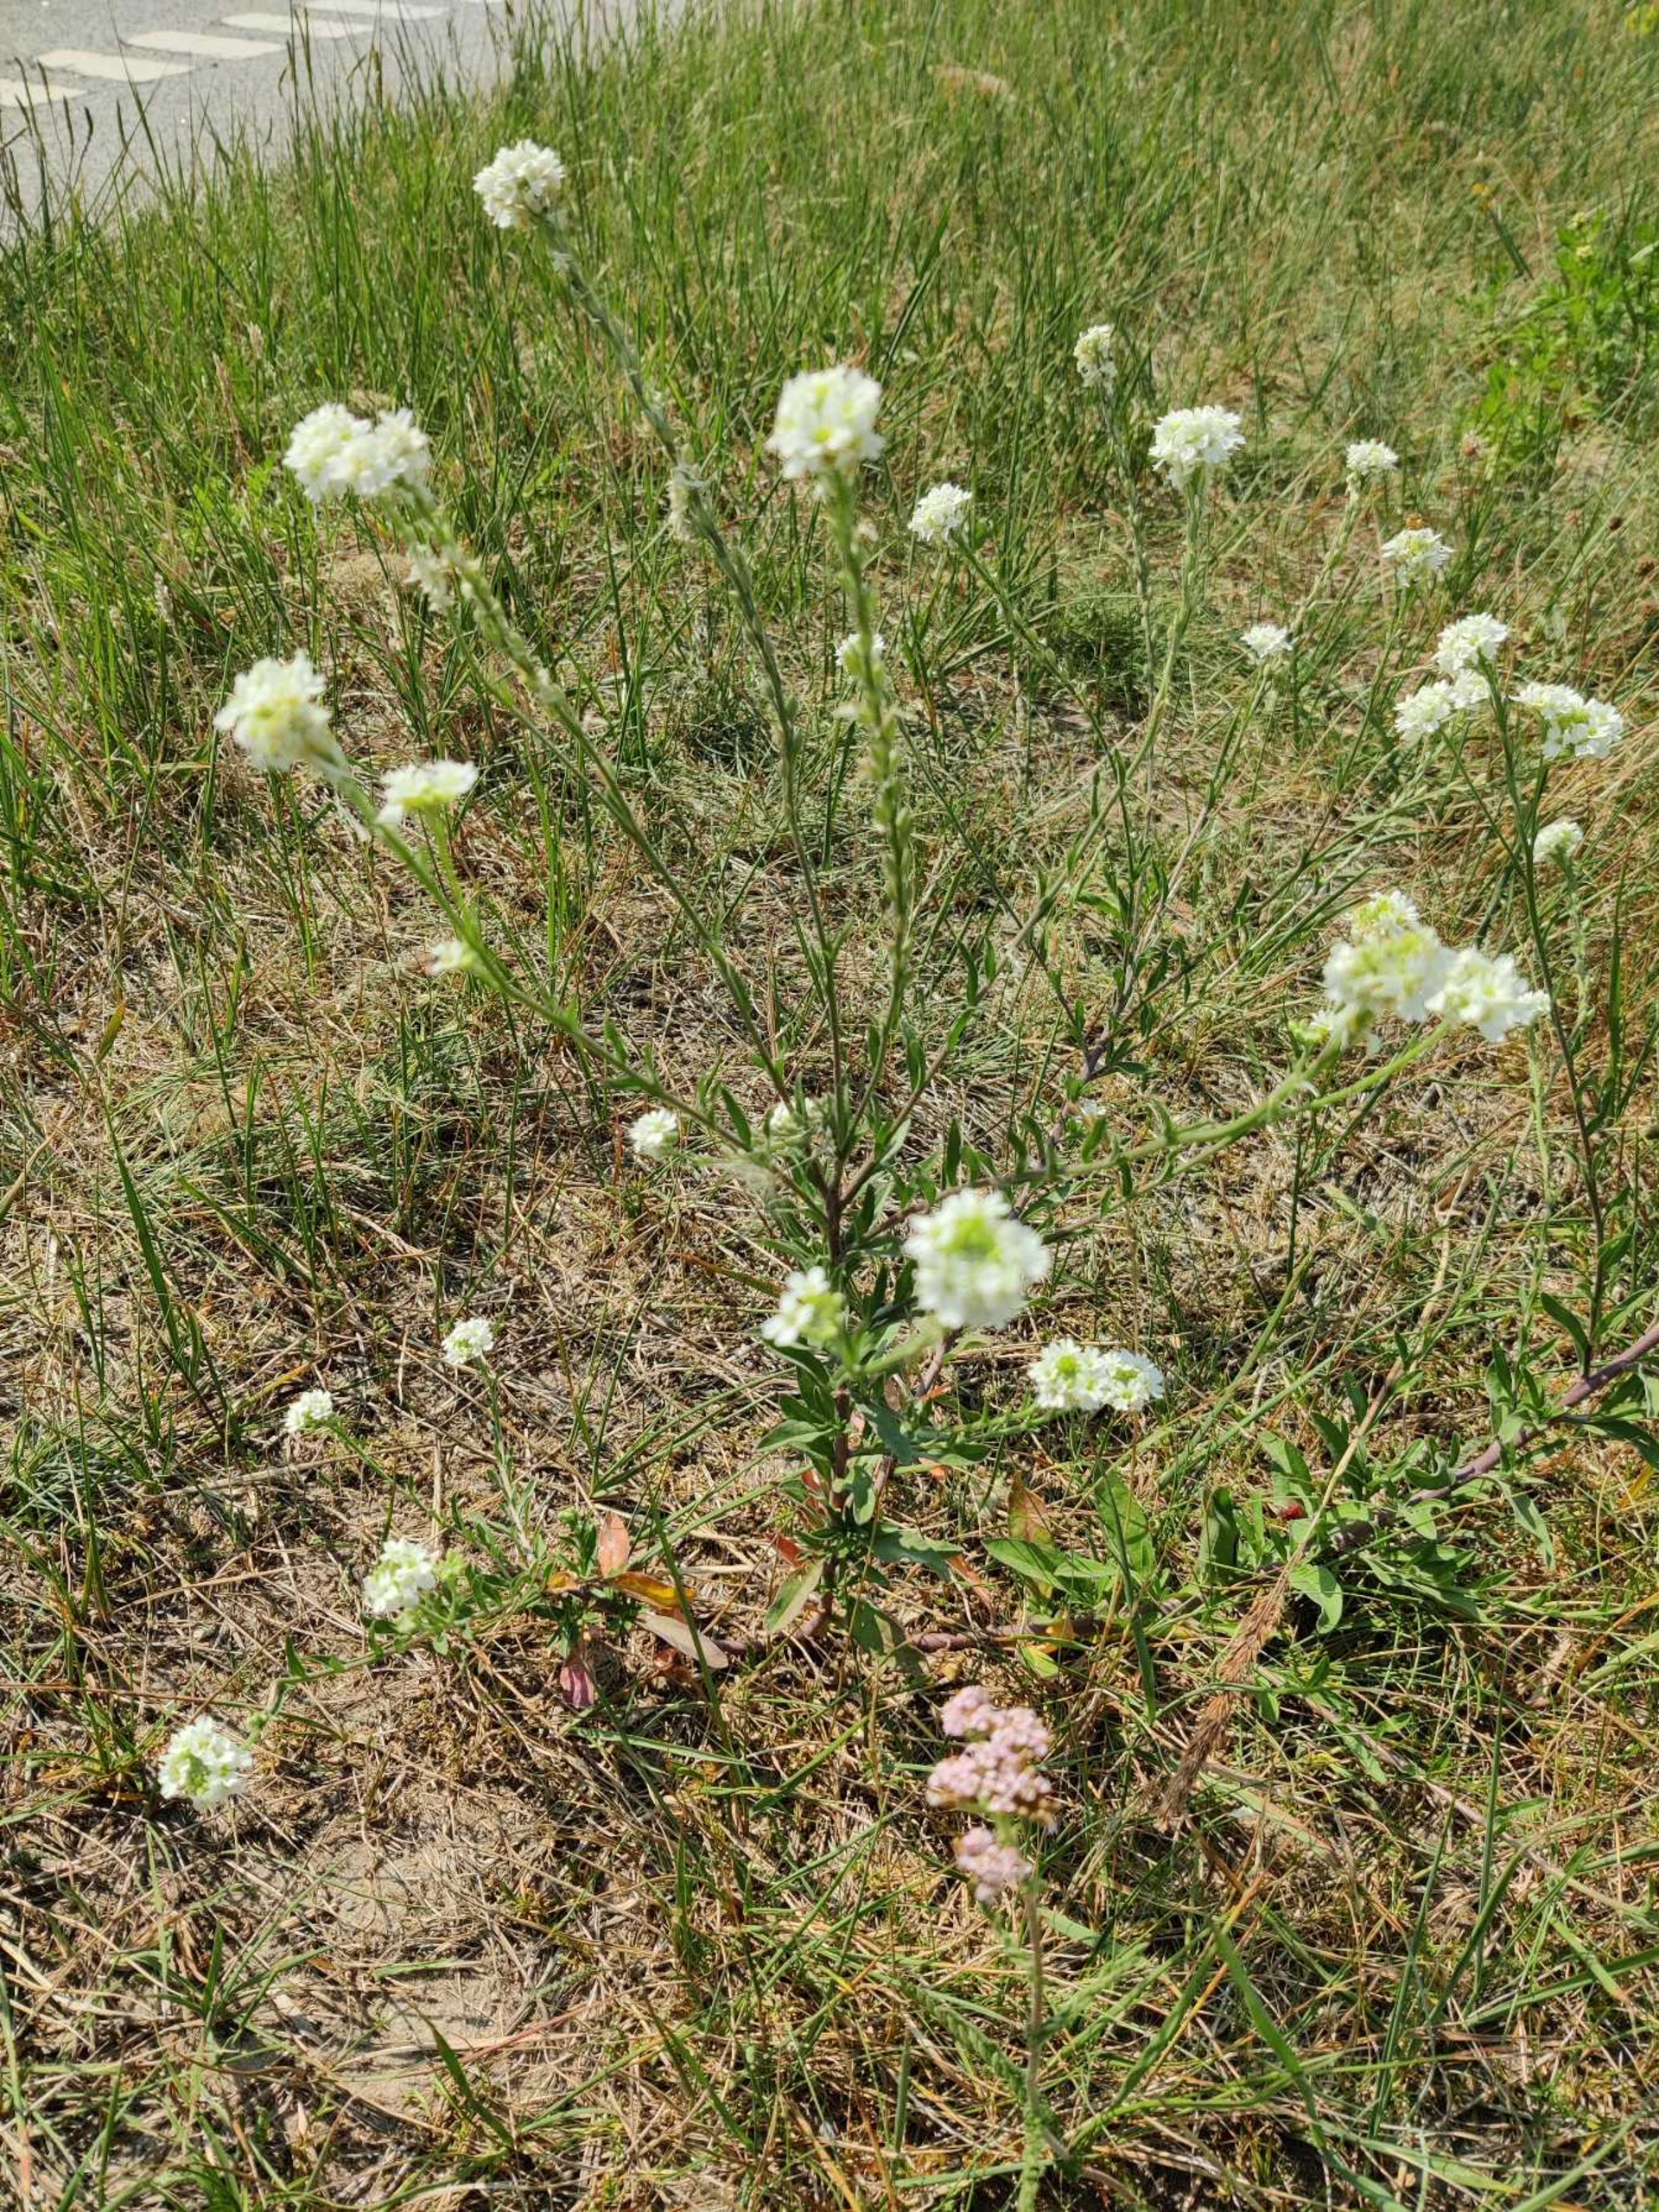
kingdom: Plantae
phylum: Tracheophyta
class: Magnoliopsida
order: Brassicales
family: Brassicaceae
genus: Berteroa
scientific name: Berteroa incana
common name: Kløvplade
